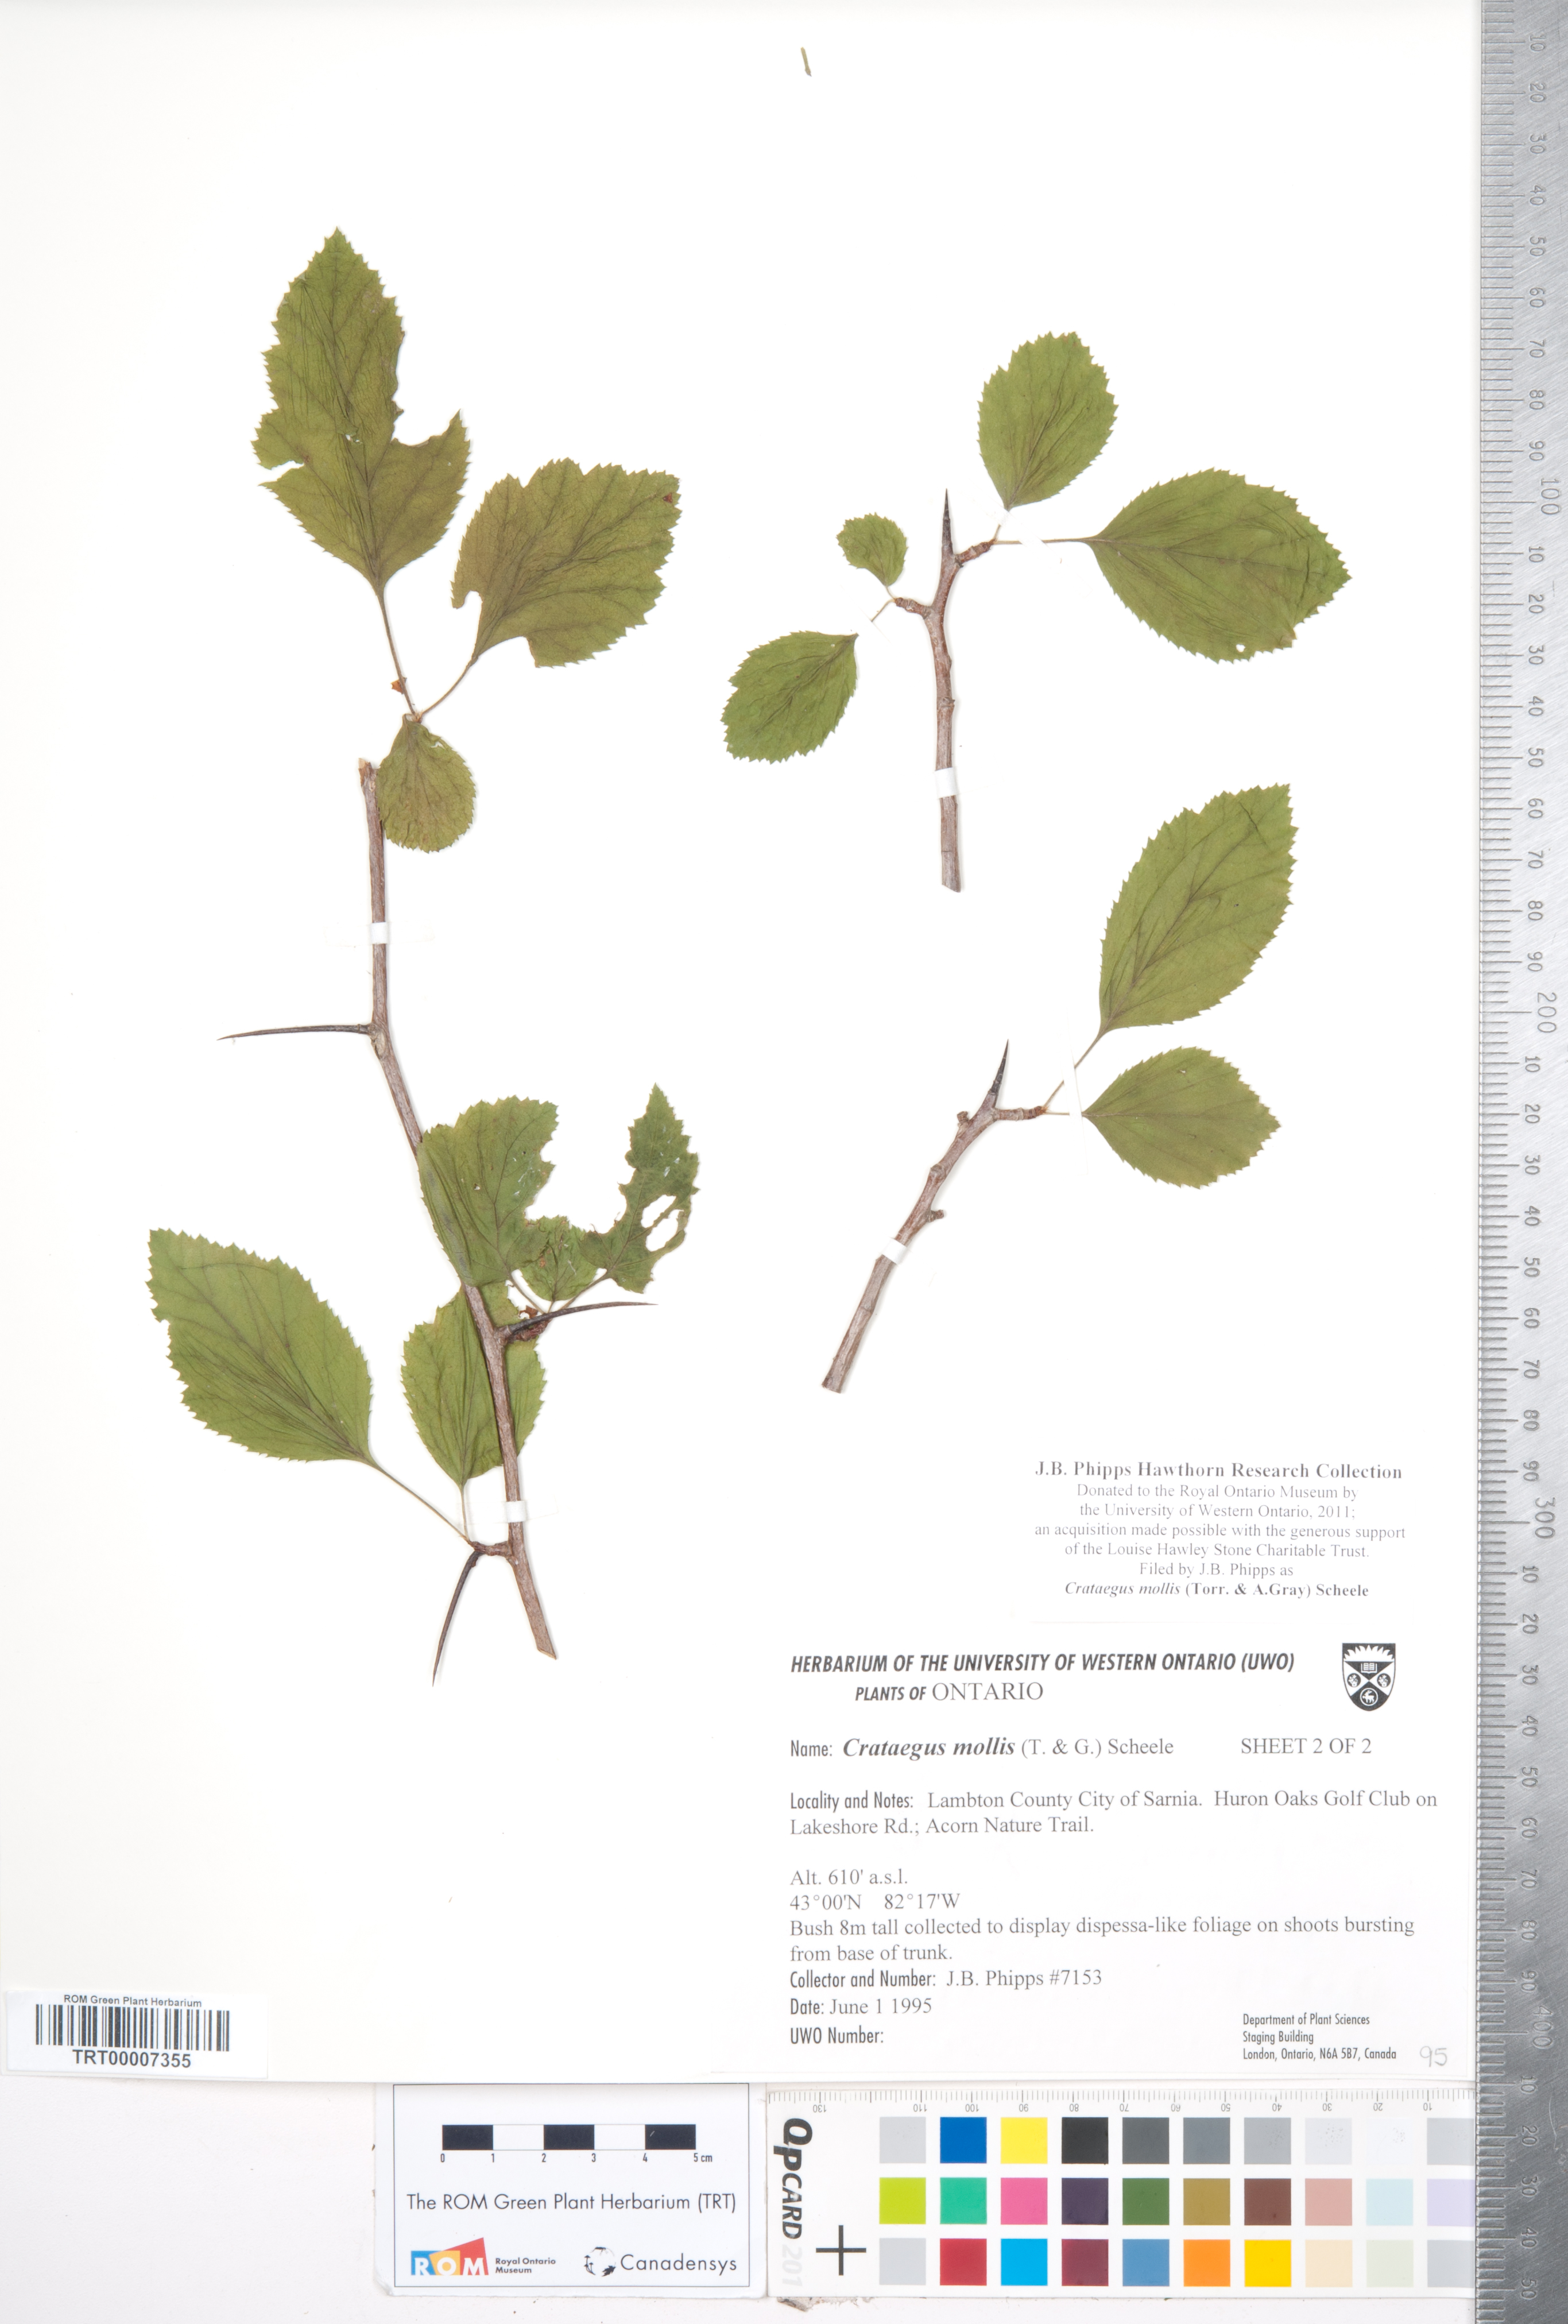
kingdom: Plantae
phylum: Tracheophyta
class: Magnoliopsida
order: Rosales
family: Rosaceae
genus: Crataegus
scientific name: Crataegus mollis
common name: Downy hawthorn
